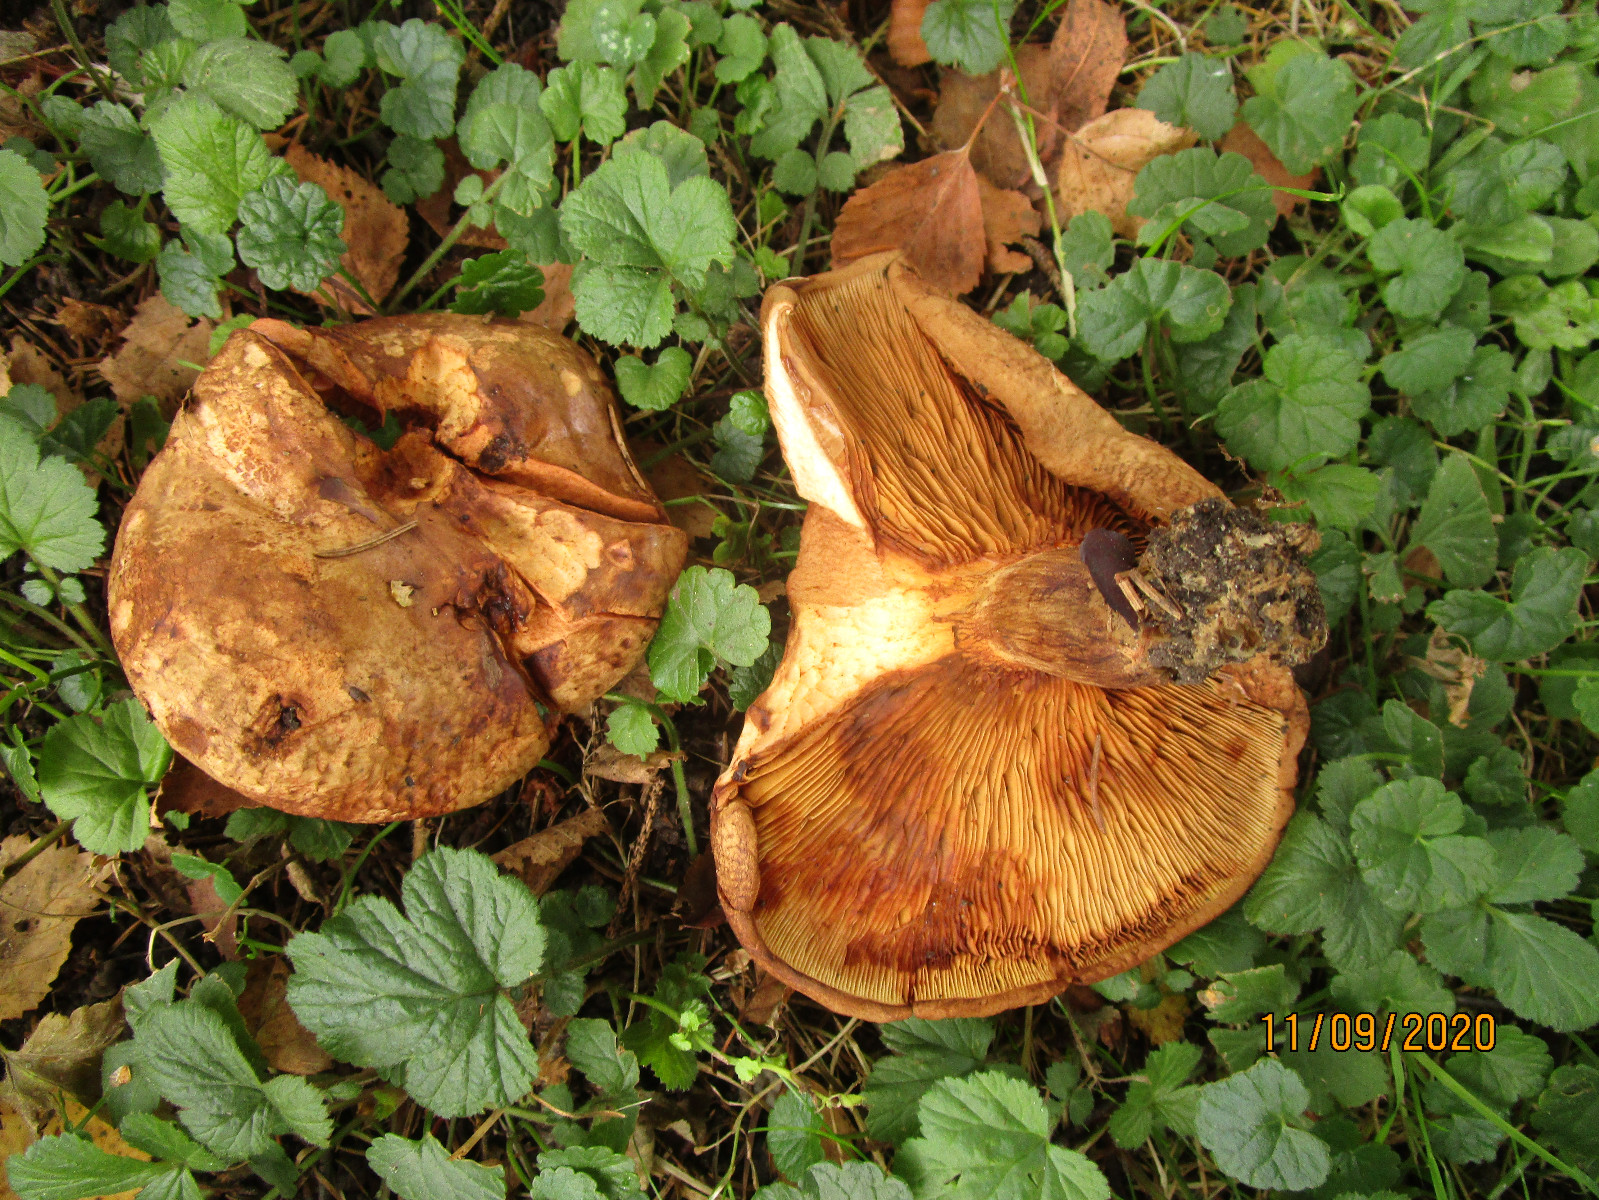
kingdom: Fungi
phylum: Basidiomycota
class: Agaricomycetes
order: Boletales
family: Paxillaceae
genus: Paxillus
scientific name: Paxillus involutus
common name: almindelig netbladhat
